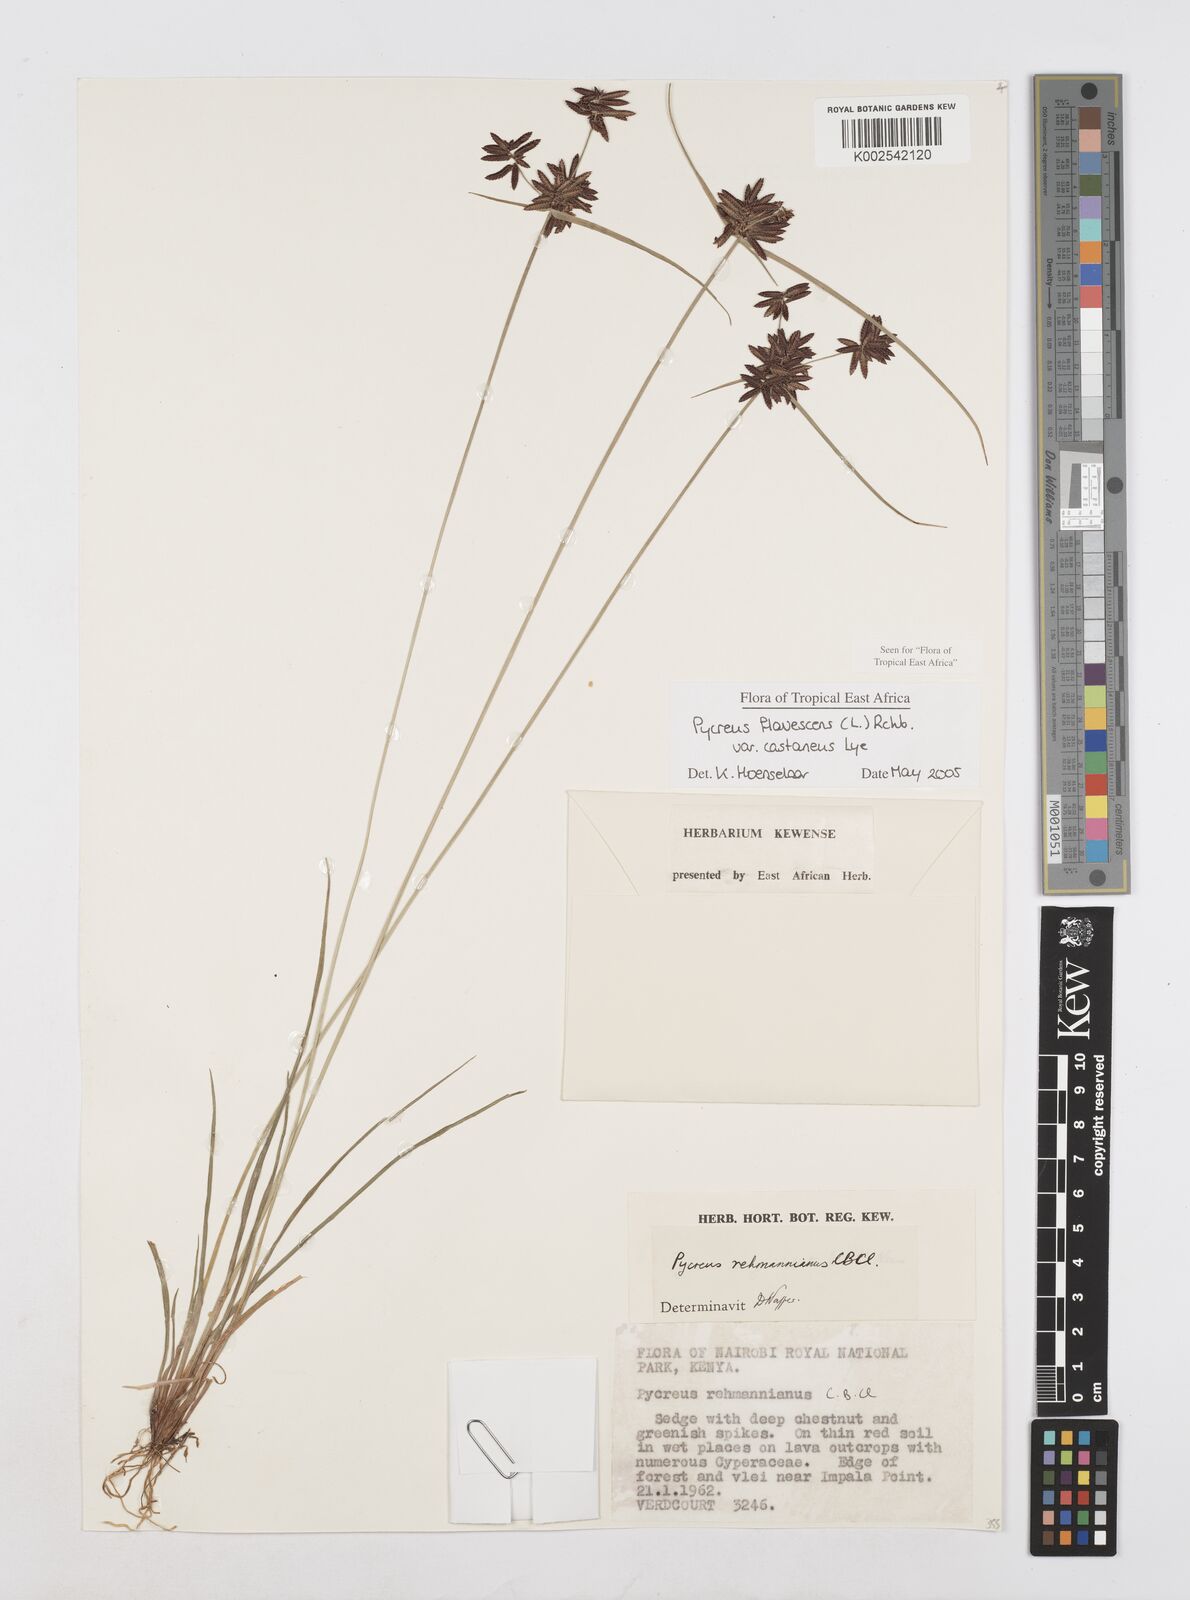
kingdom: Plantae
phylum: Tracheophyta
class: Liliopsida
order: Poales
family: Cyperaceae
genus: Cyperus
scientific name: Cyperus flavescens
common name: Yellow galingale
